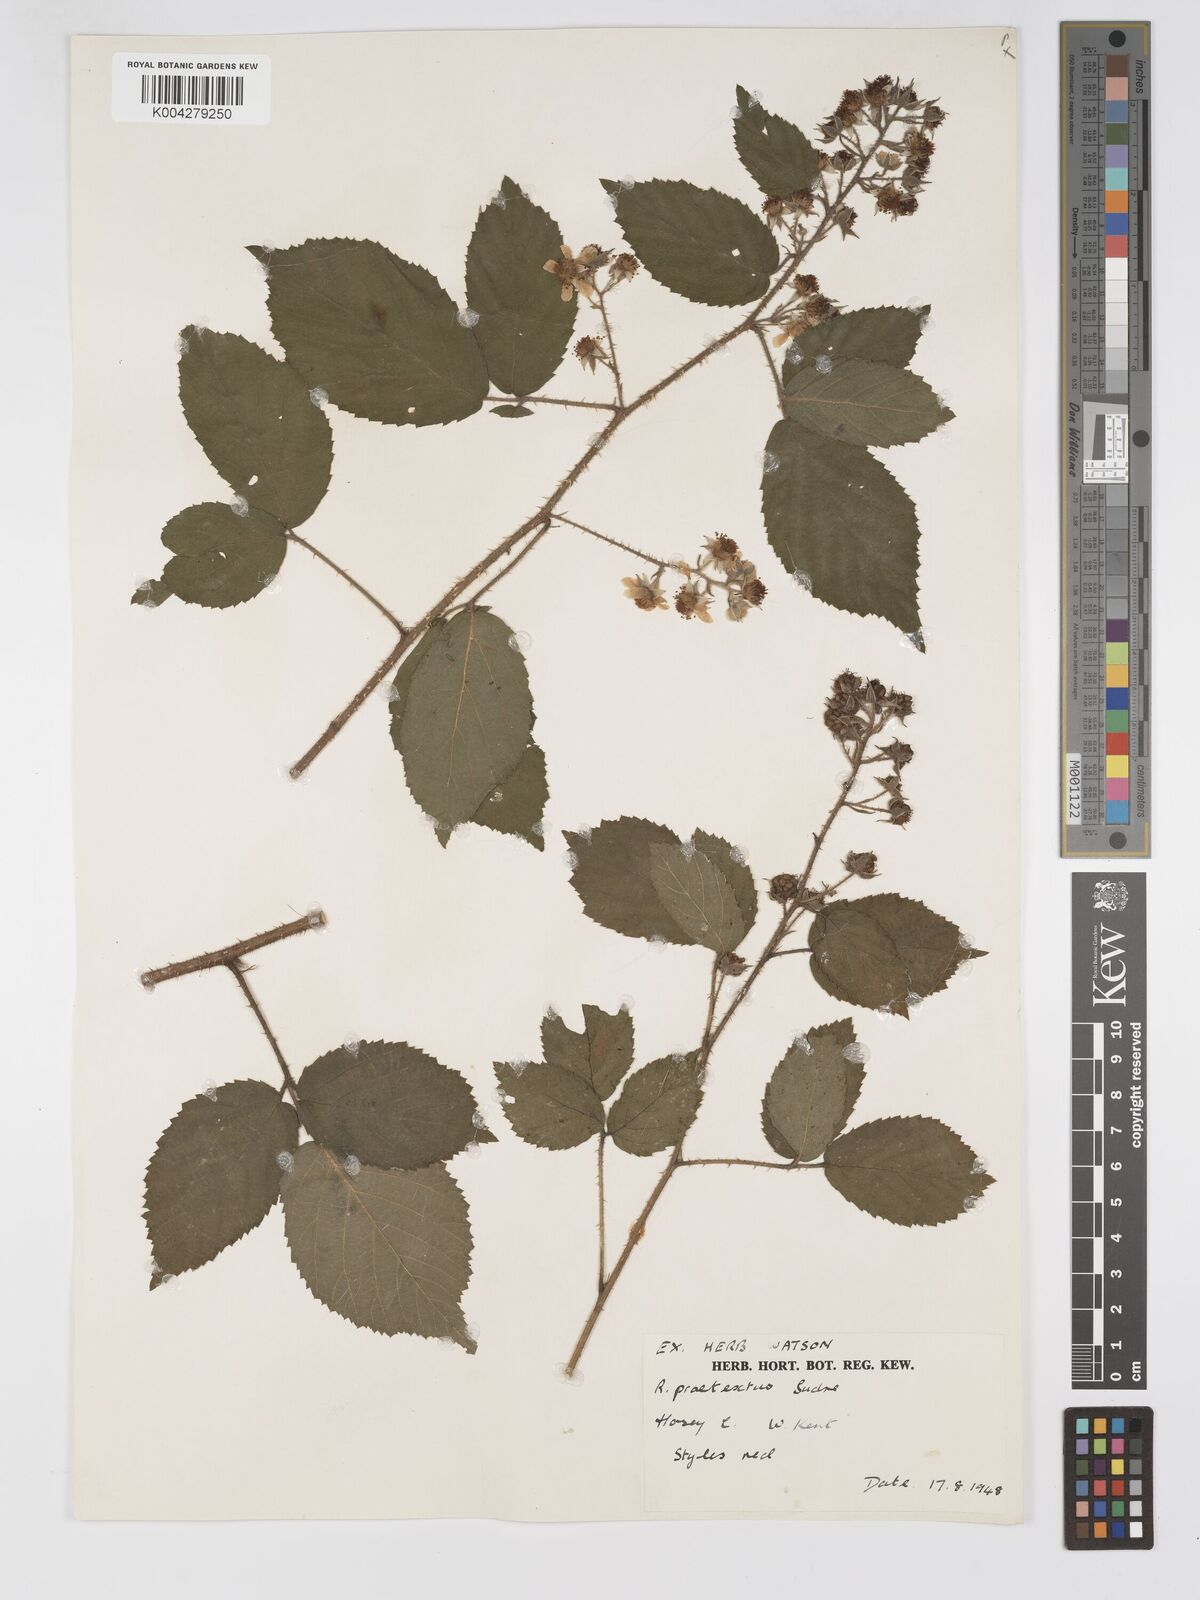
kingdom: Plantae
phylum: Tracheophyta
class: Magnoliopsida
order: Rosales
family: Rosaceae
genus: Rubus
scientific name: Rubus praetextus
